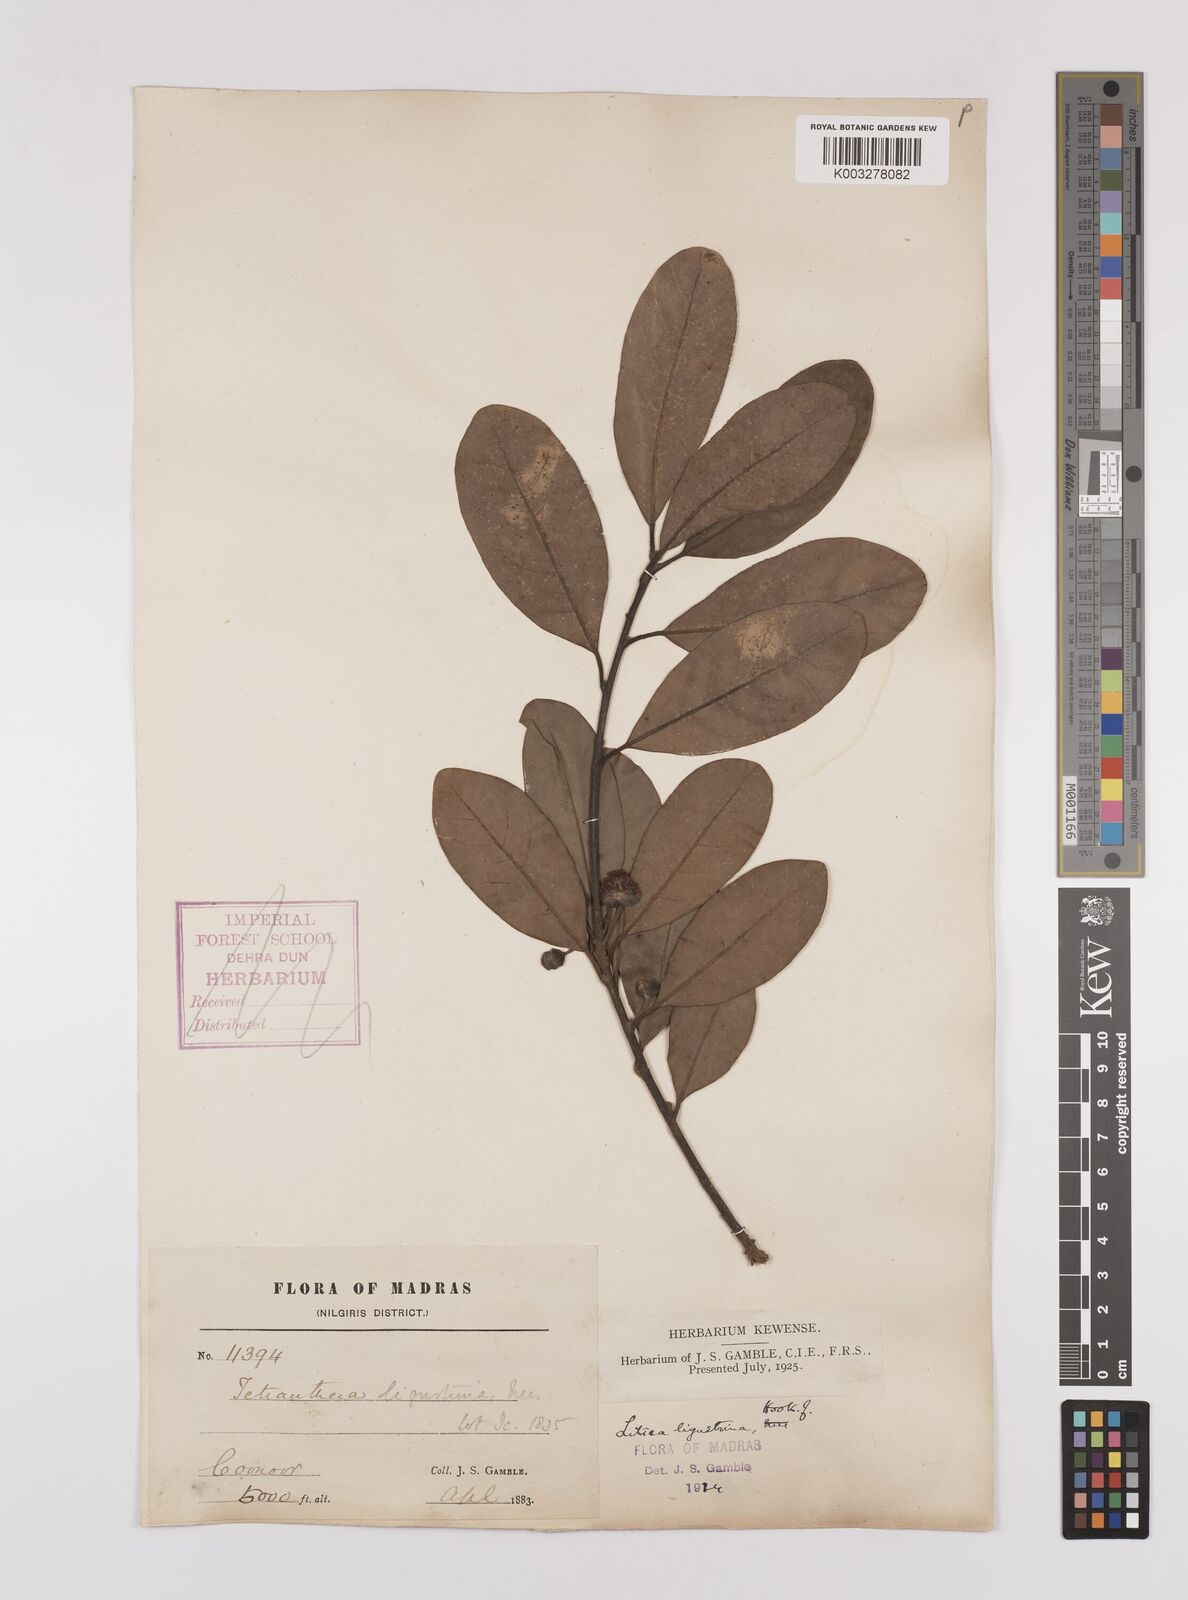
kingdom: Plantae
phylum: Tracheophyta
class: Magnoliopsida
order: Laurales
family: Lauraceae
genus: Litsea
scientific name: Litsea ligustrina
